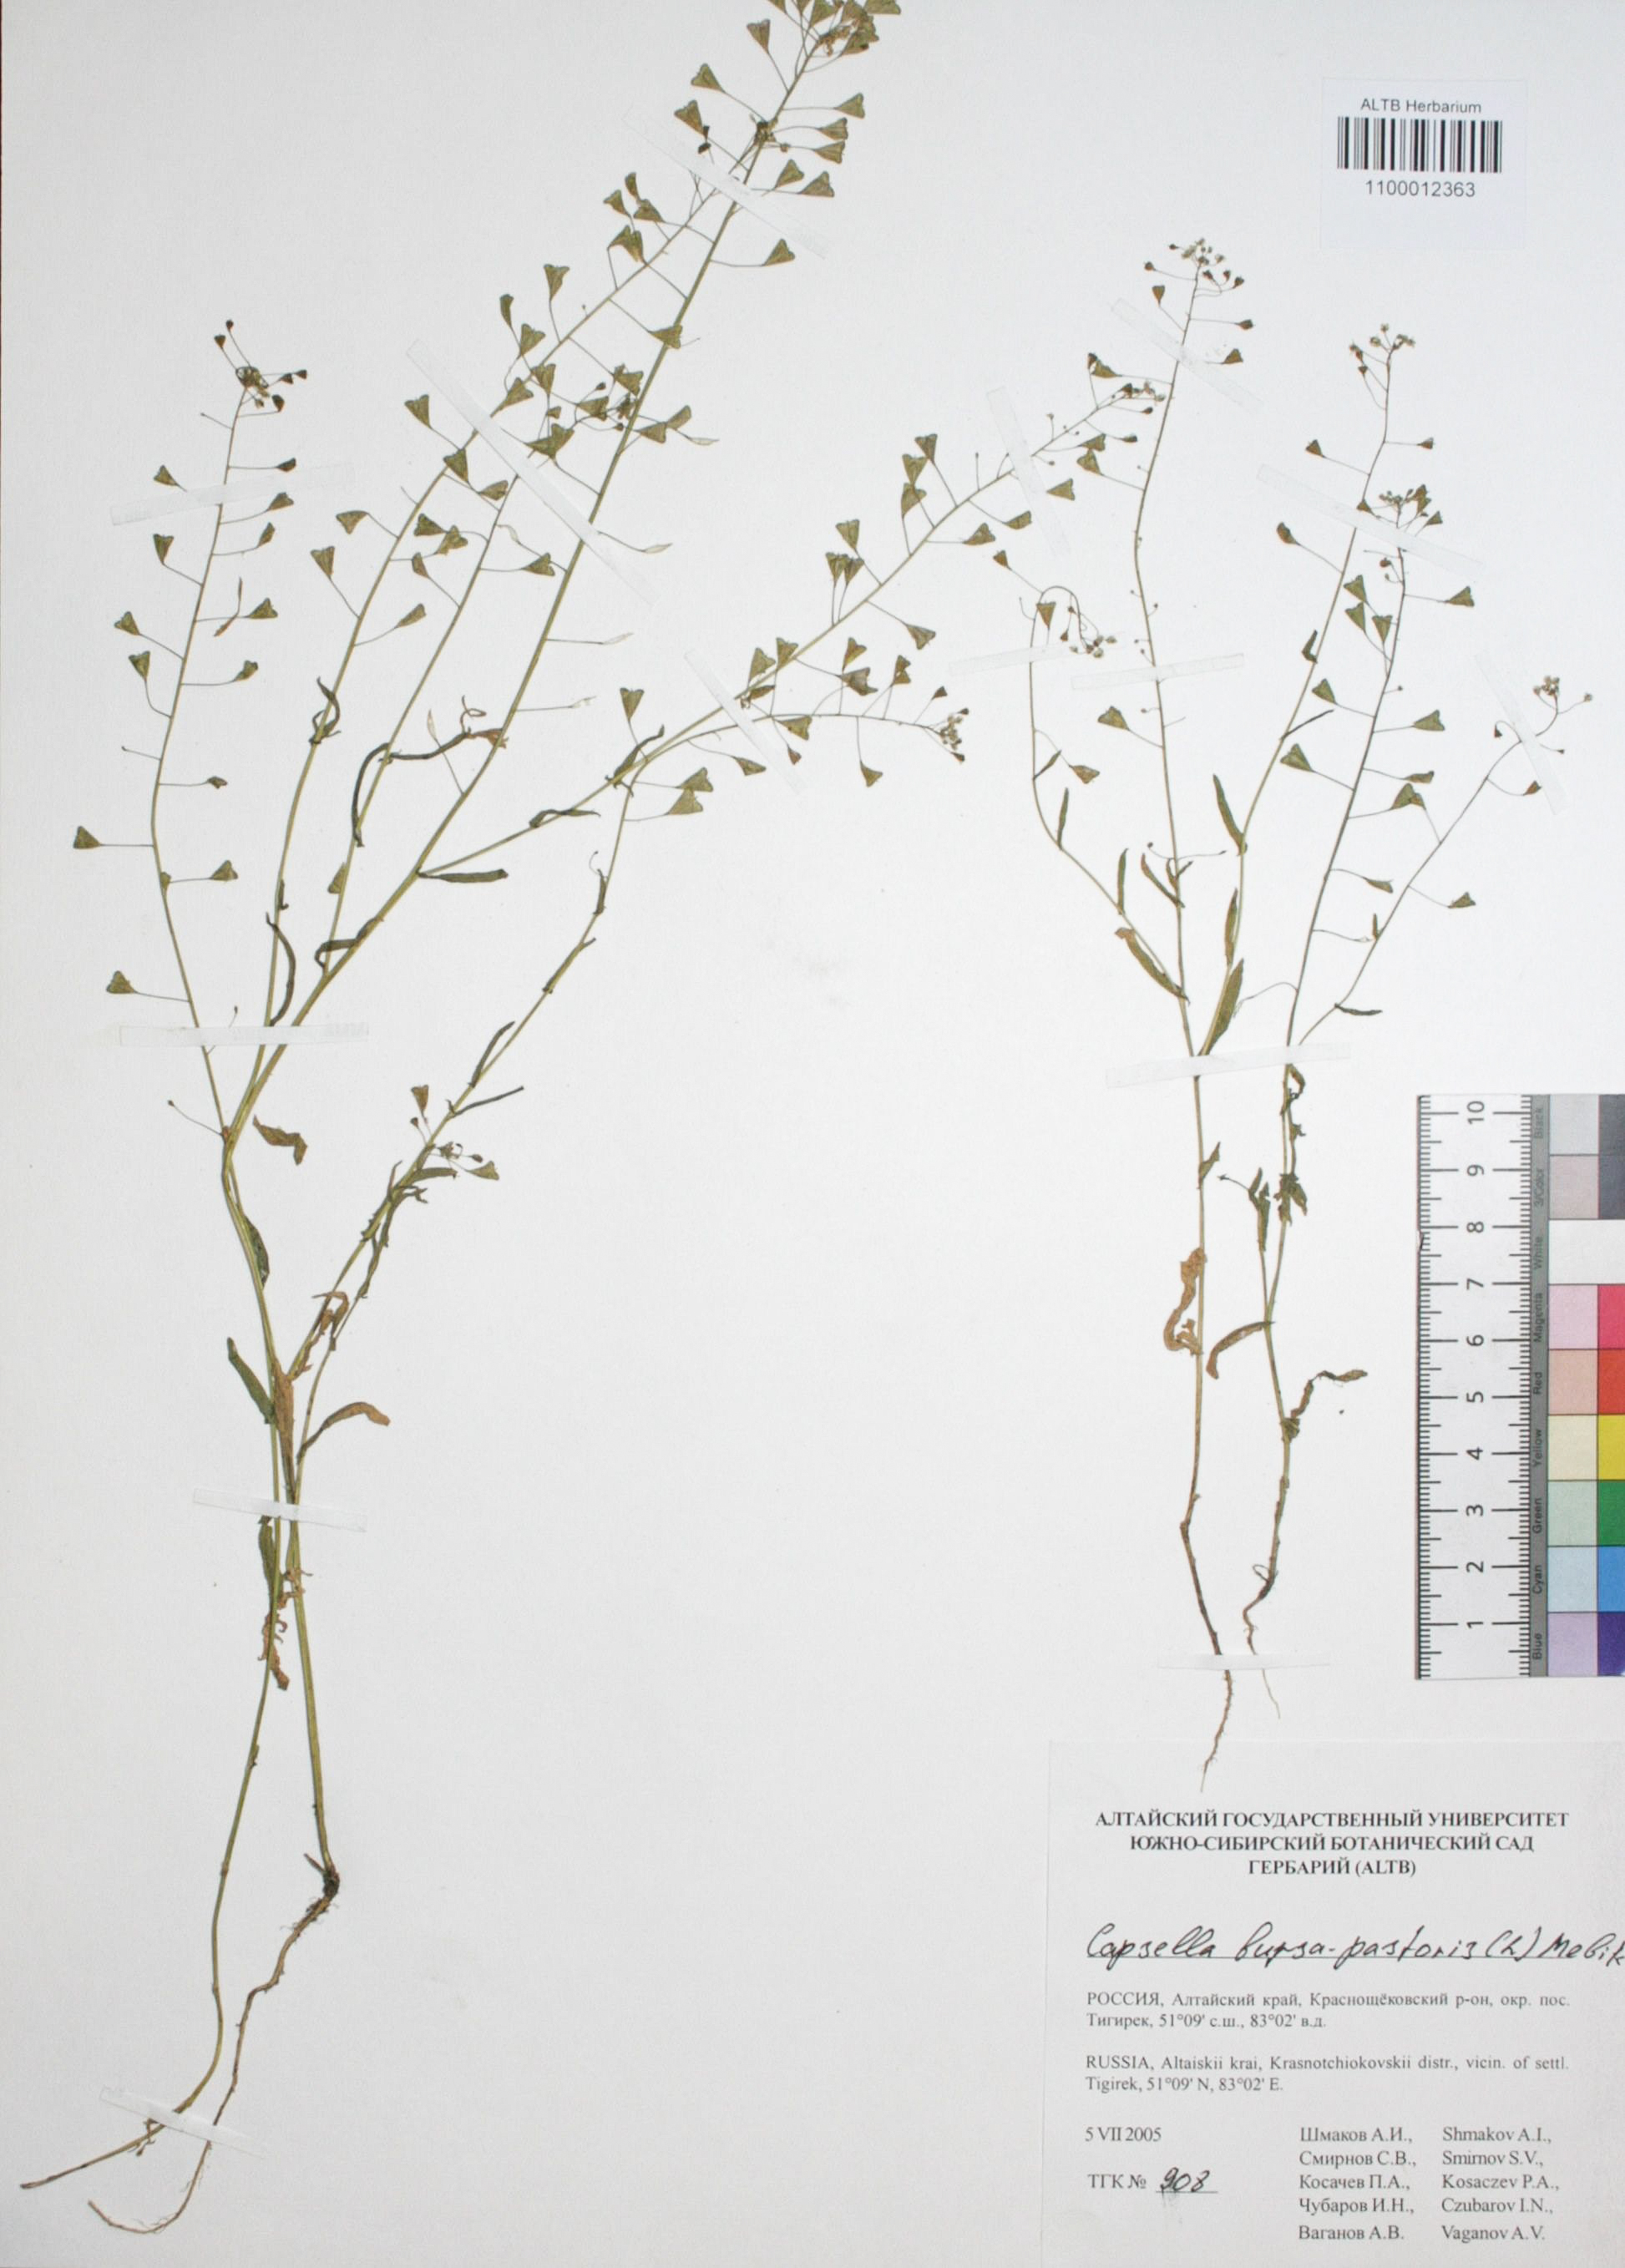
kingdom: Plantae
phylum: Tracheophyta
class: Magnoliopsida
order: Brassicales
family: Brassicaceae
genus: Capsella
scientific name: Capsella bursa-pastoris
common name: Shepherd's purse
